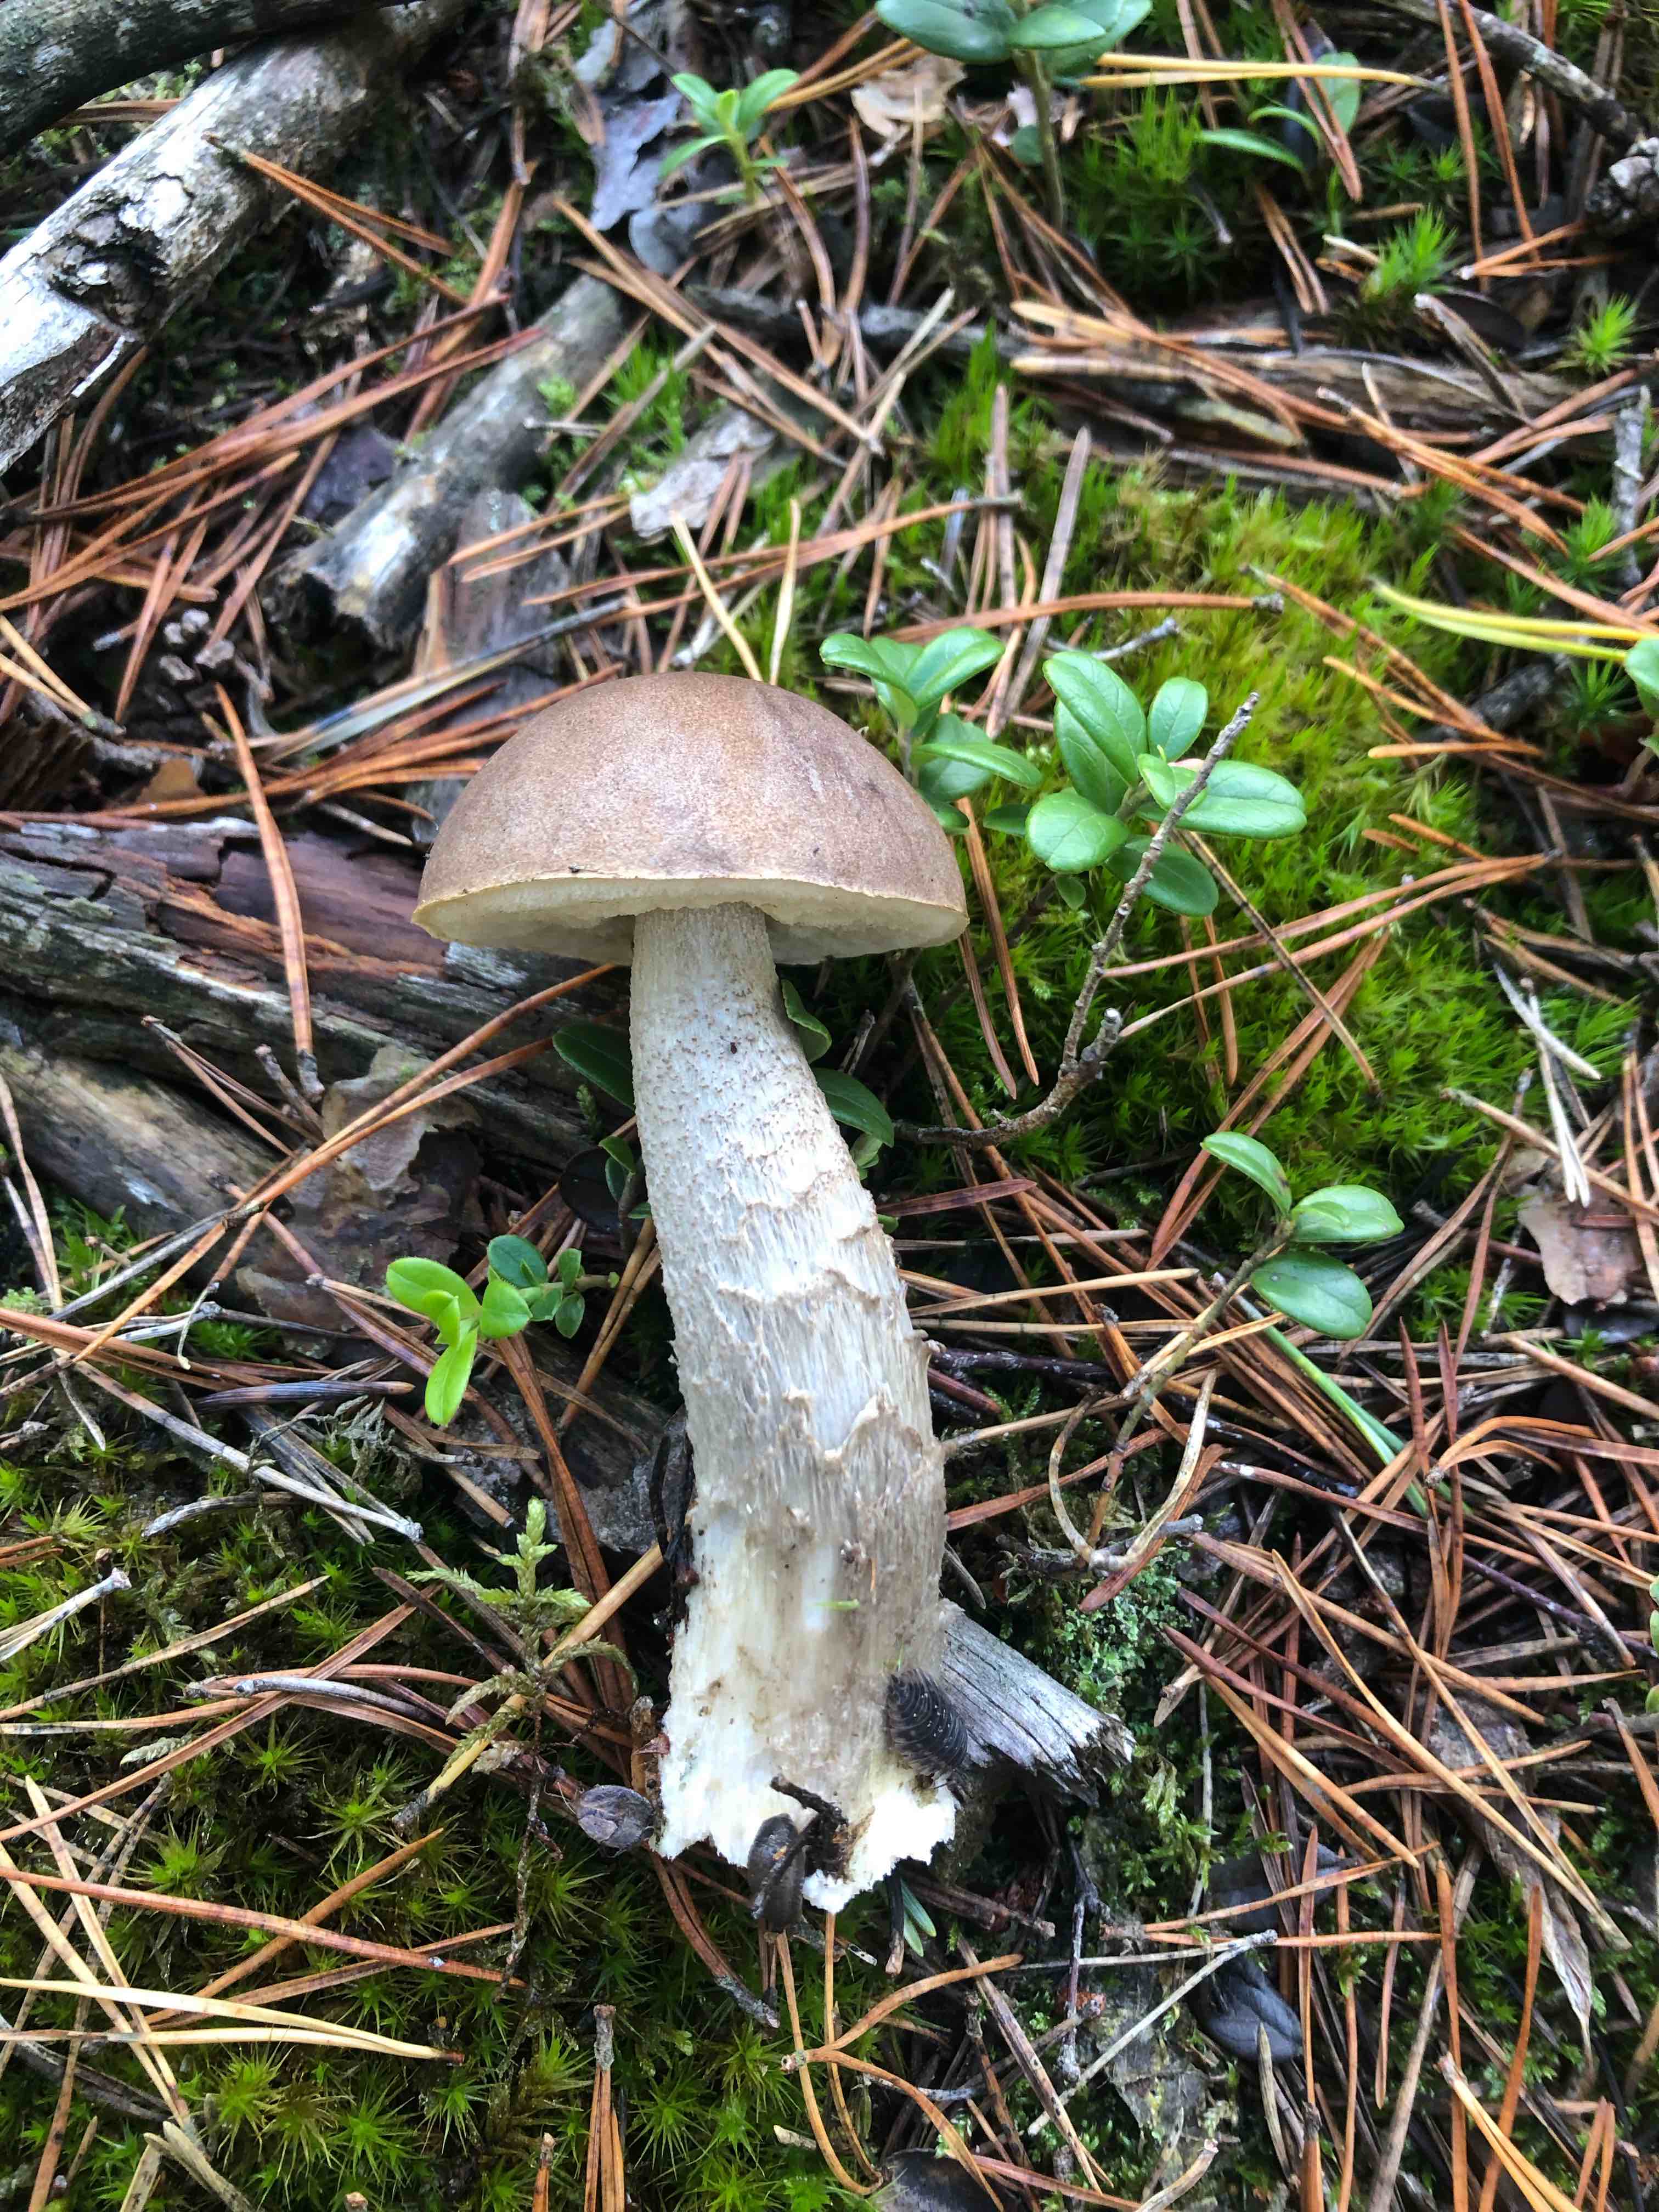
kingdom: Fungi
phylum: Basidiomycota
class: Agaricomycetes
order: Boletales
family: Boletaceae
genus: Leccinum
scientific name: Leccinum
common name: skælrørhat
